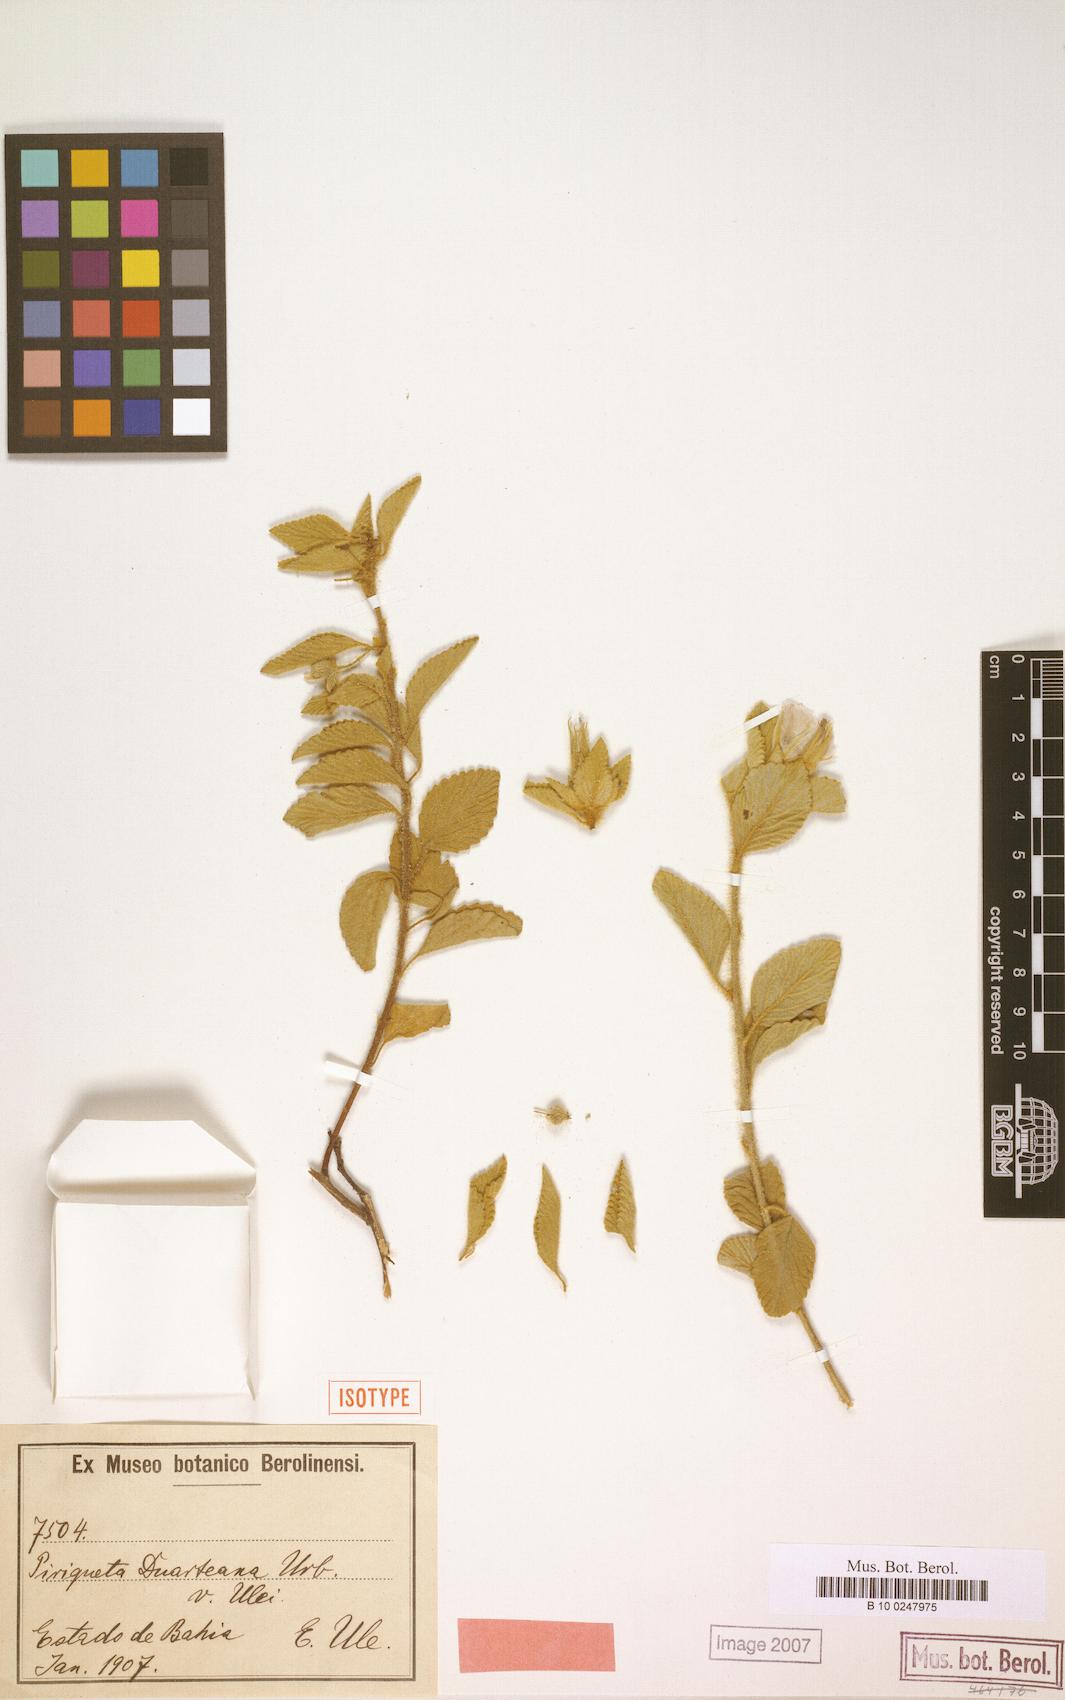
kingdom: Plantae
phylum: Tracheophyta
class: Magnoliopsida
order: Malpighiales
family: Turneraceae
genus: Piriqueta
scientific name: Piriqueta duarteana
